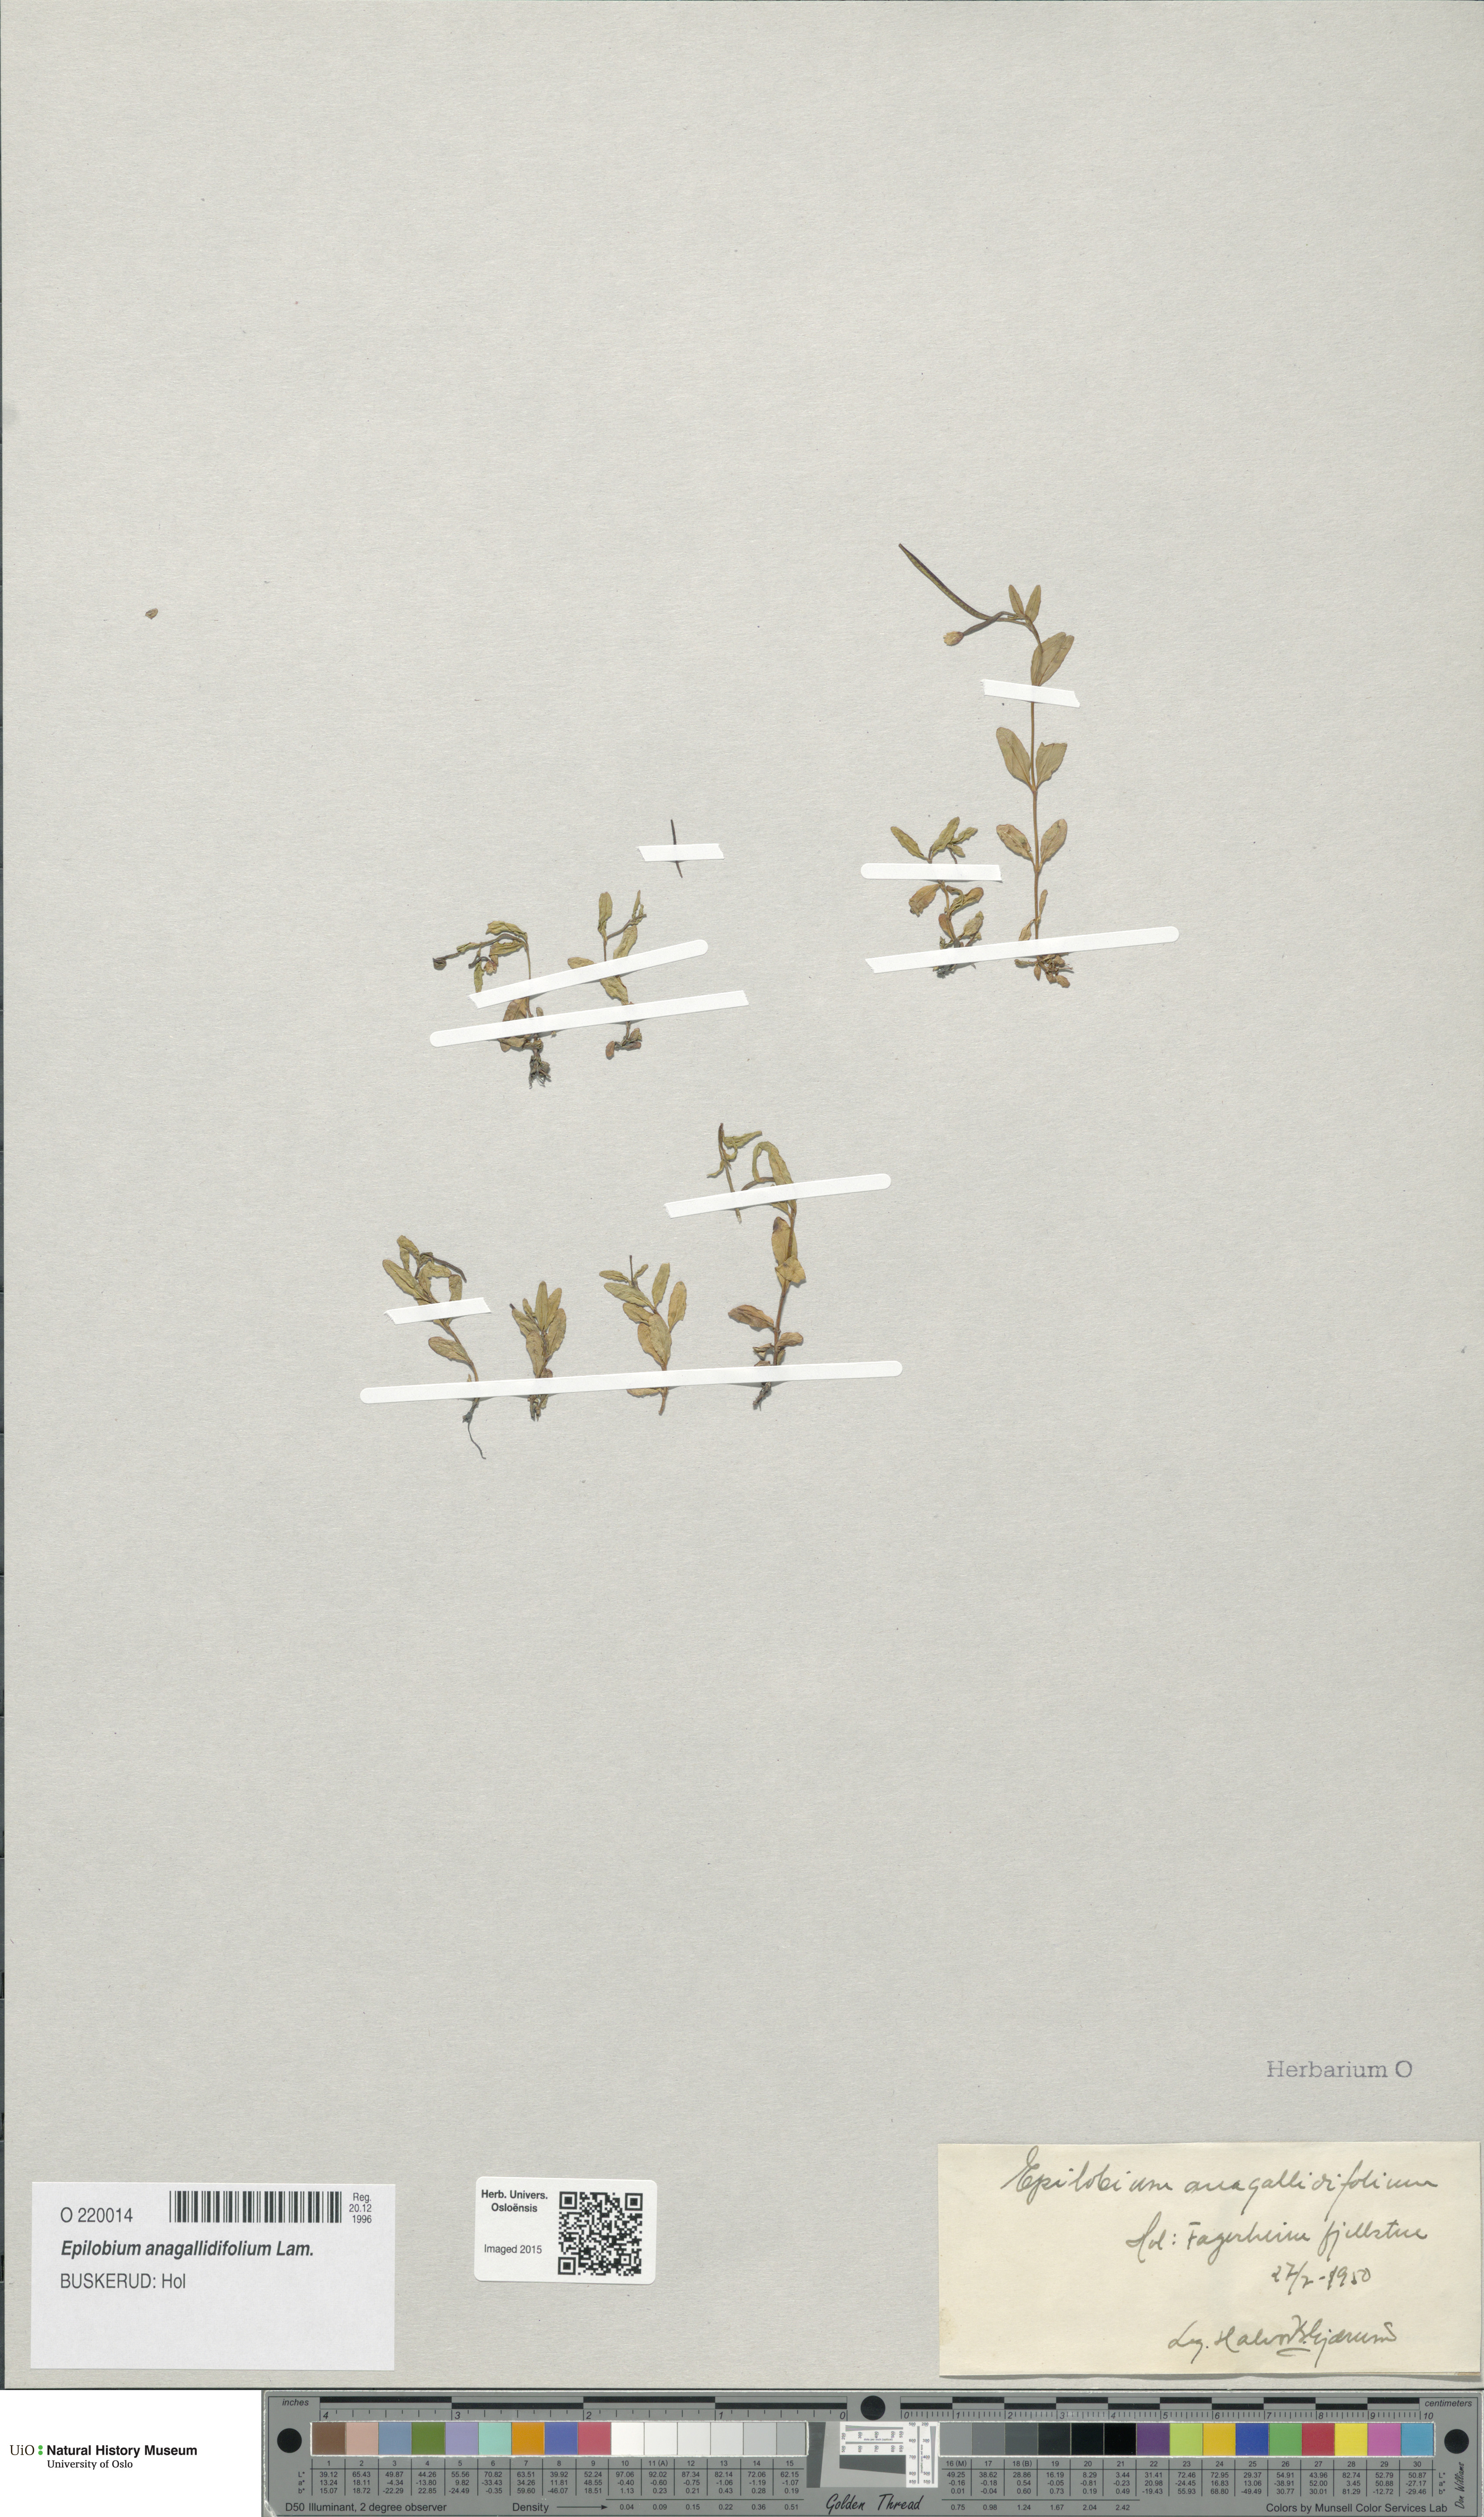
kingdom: Plantae
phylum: Tracheophyta
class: Magnoliopsida
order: Myrtales
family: Onagraceae
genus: Epilobium
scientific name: Epilobium anagallidifolium
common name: Alpine willowherb
